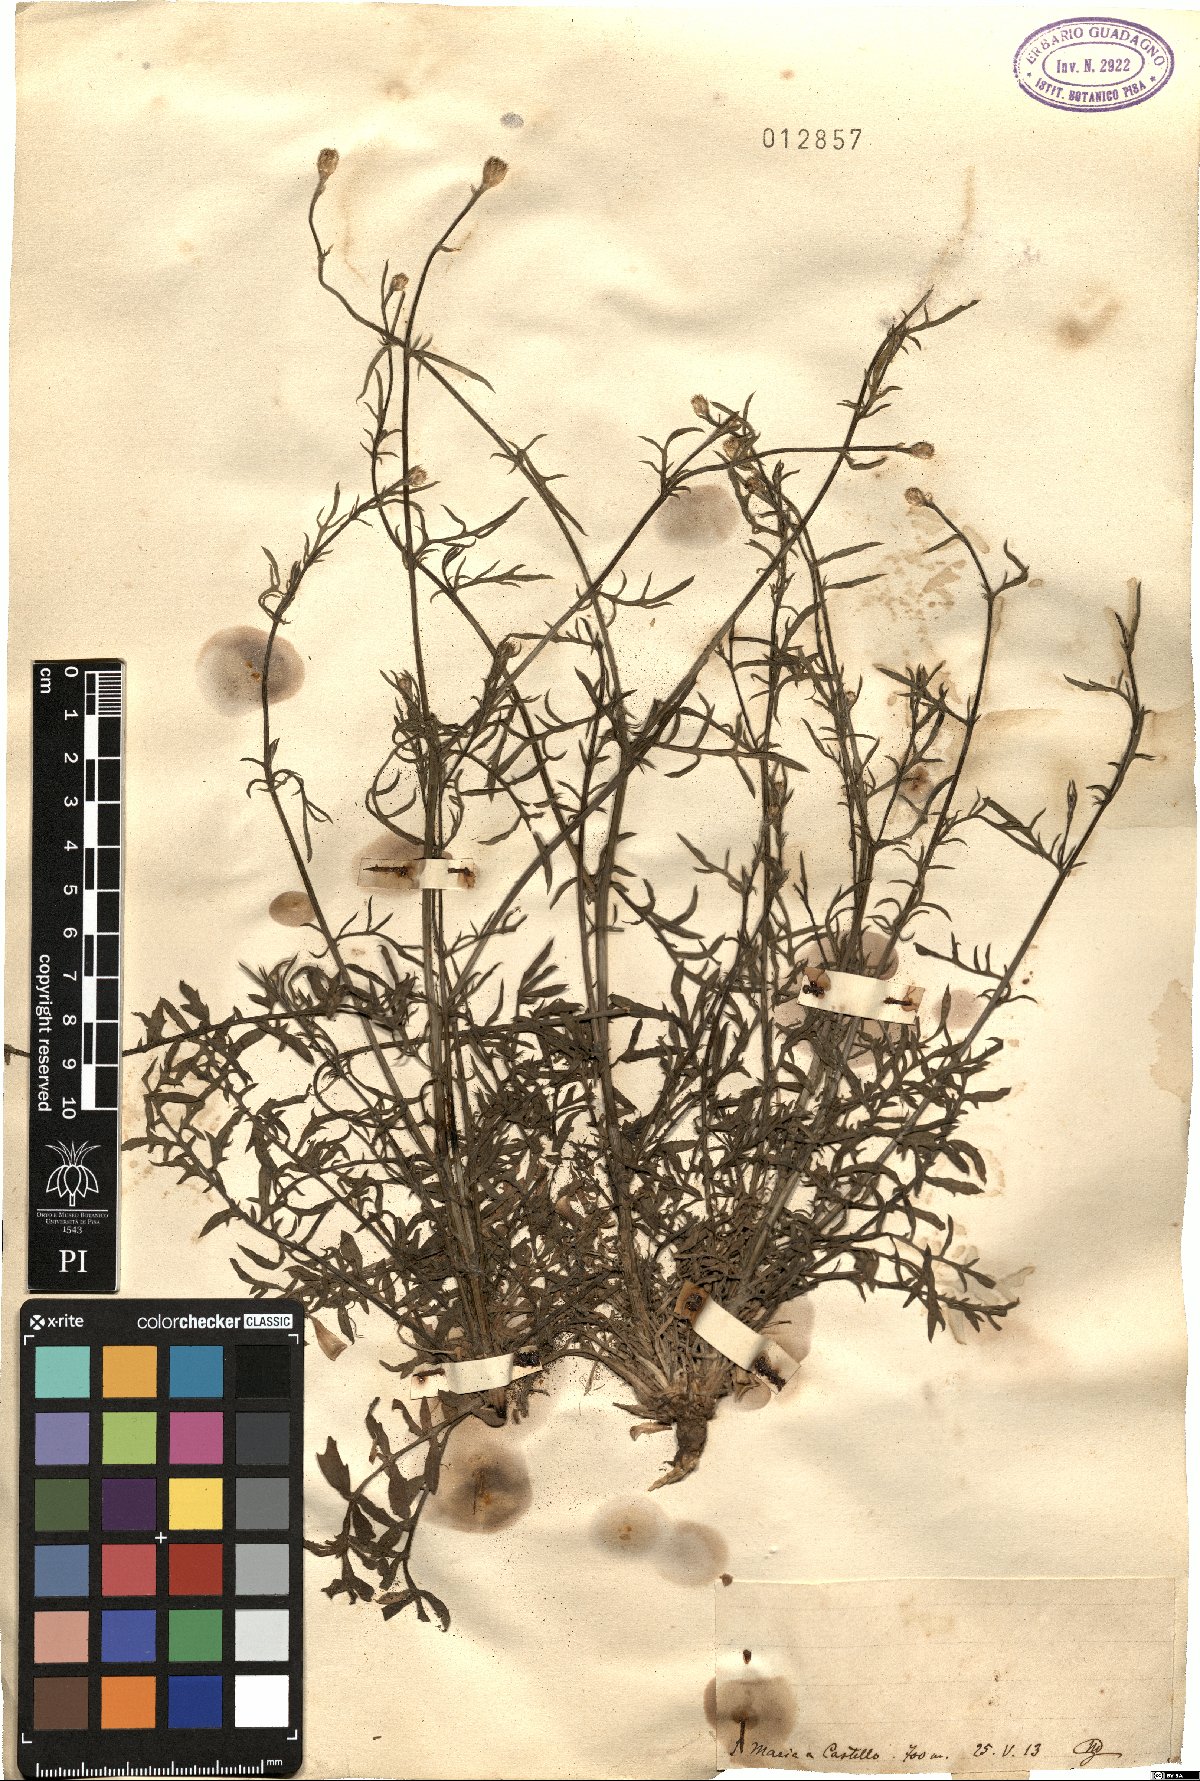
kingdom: Plantae
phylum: Tracheophyta
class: Magnoliopsida
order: Asterales
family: Asteraceae
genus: Centaurea
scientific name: Centaurea
